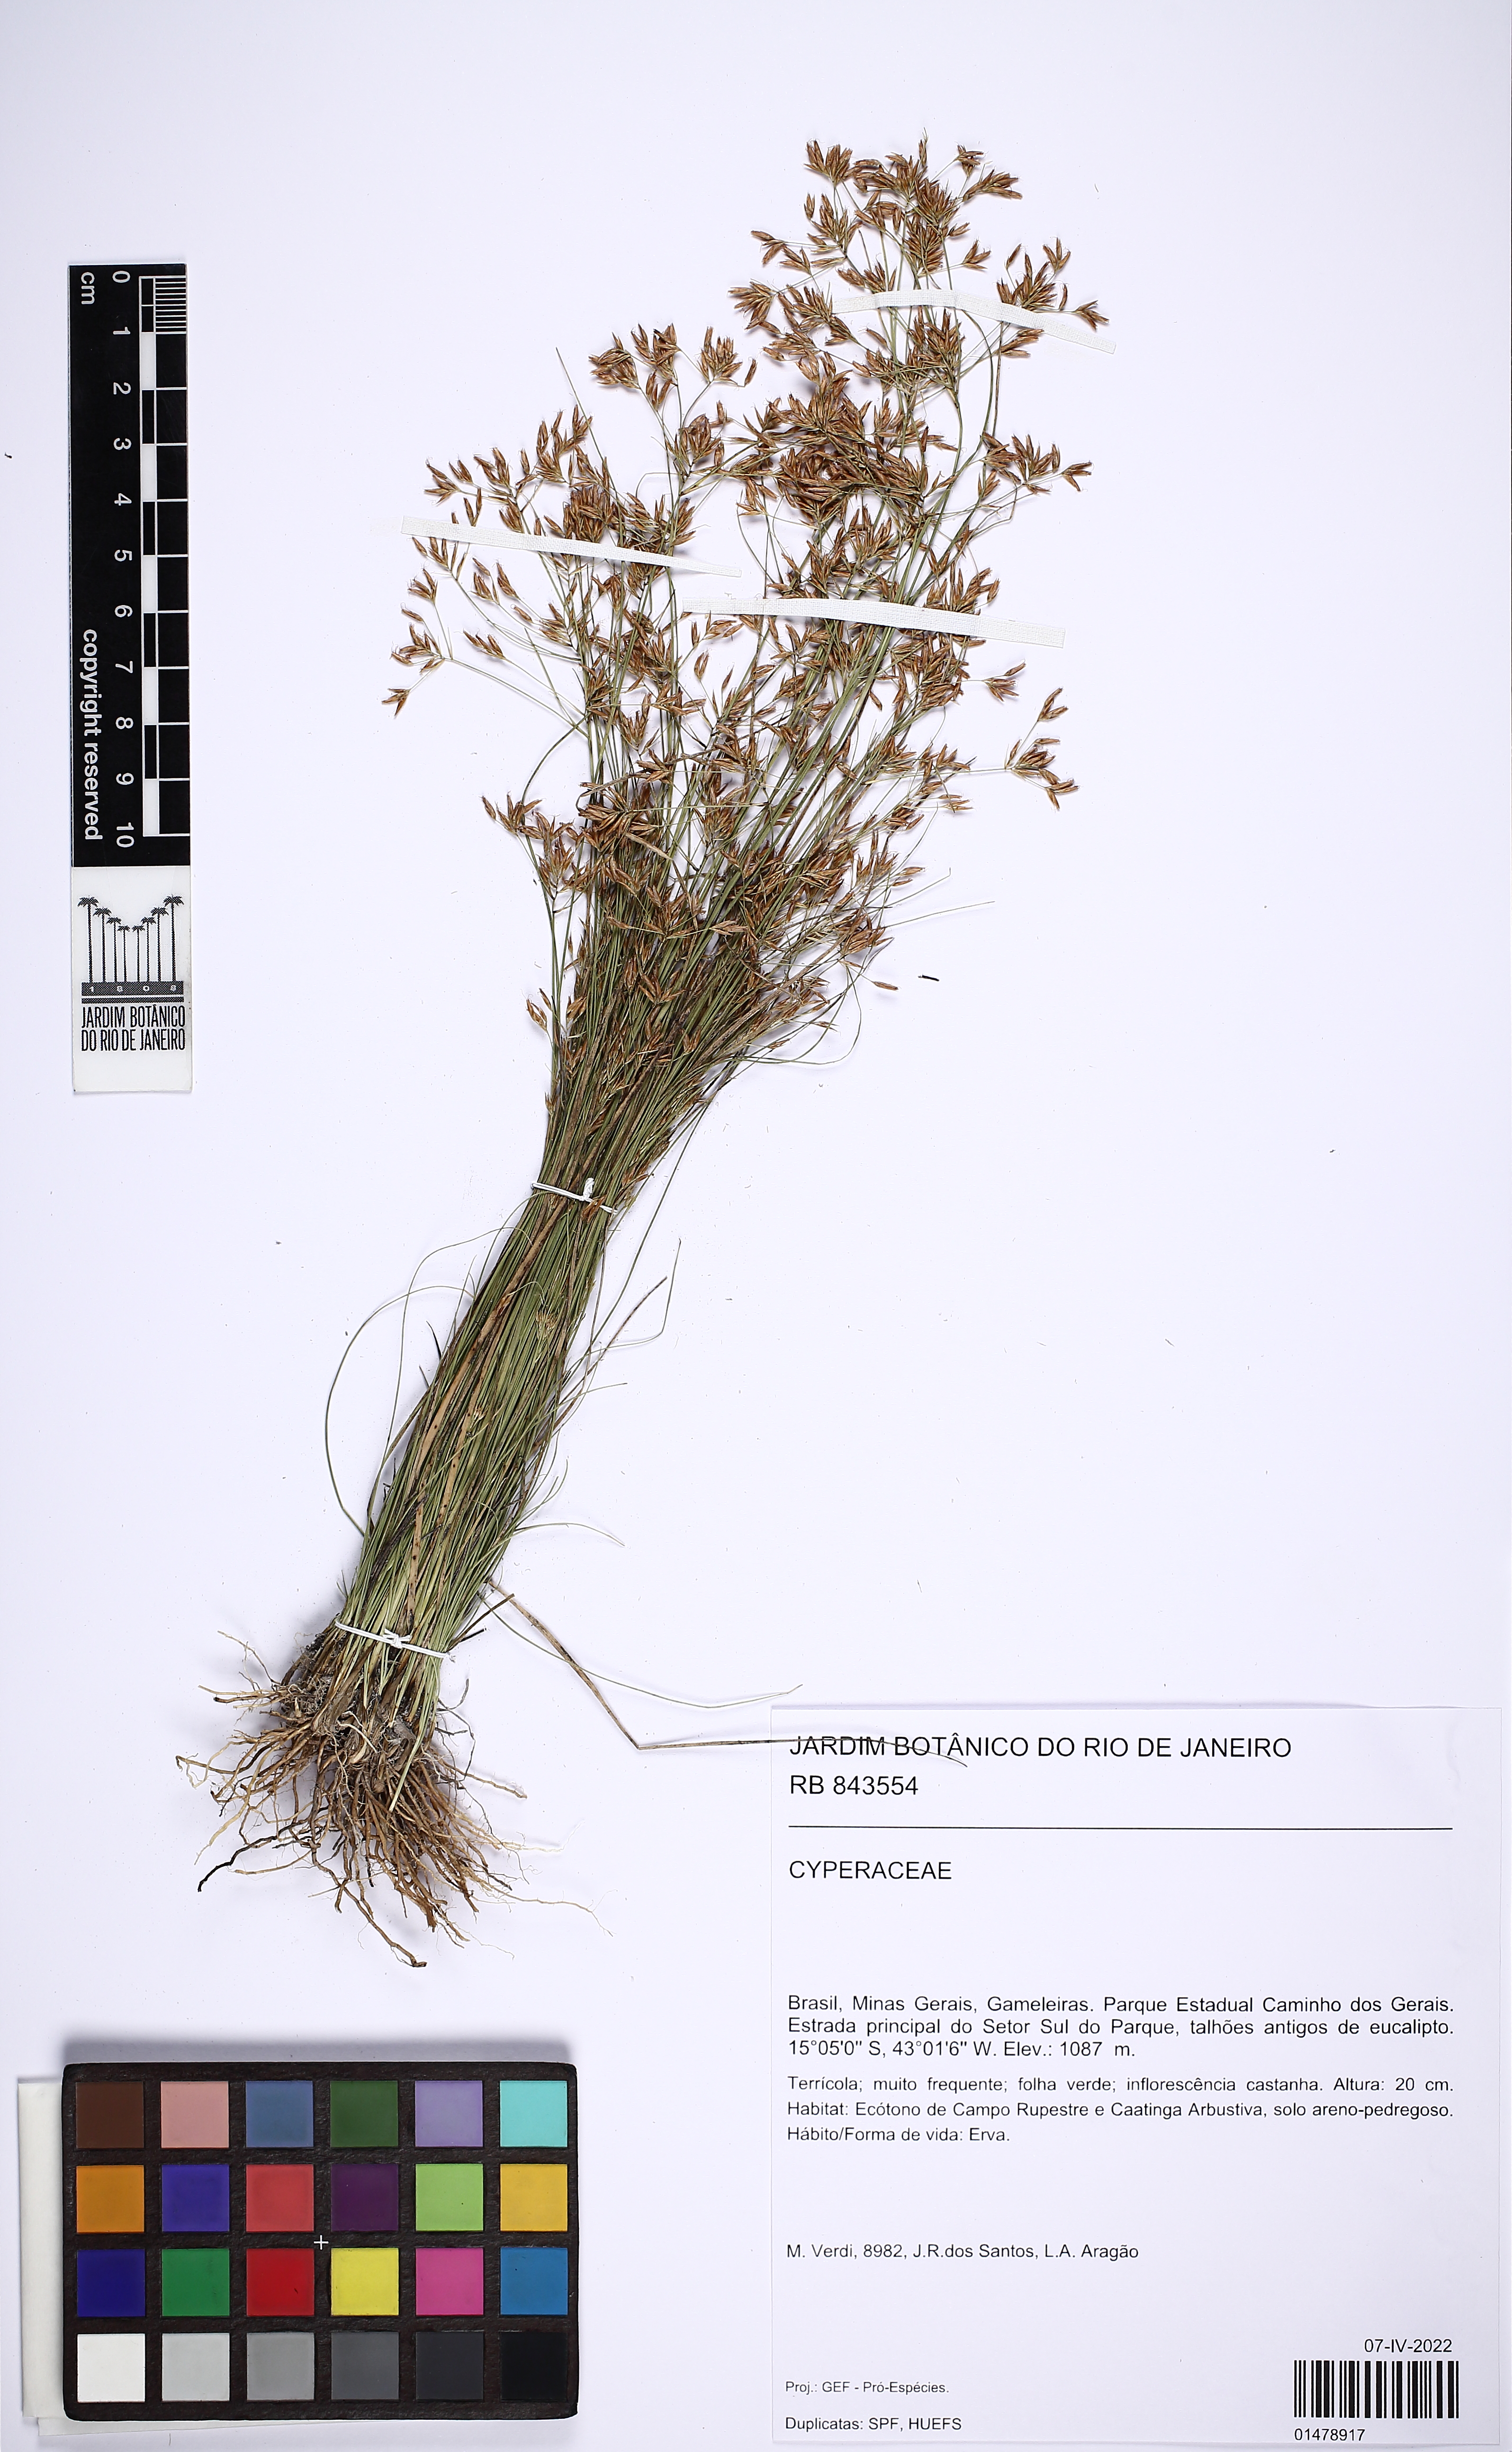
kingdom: Plantae
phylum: Tracheophyta
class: Liliopsida
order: Poales
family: Cyperaceae
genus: Rhynchospora
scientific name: Rhynchospora
